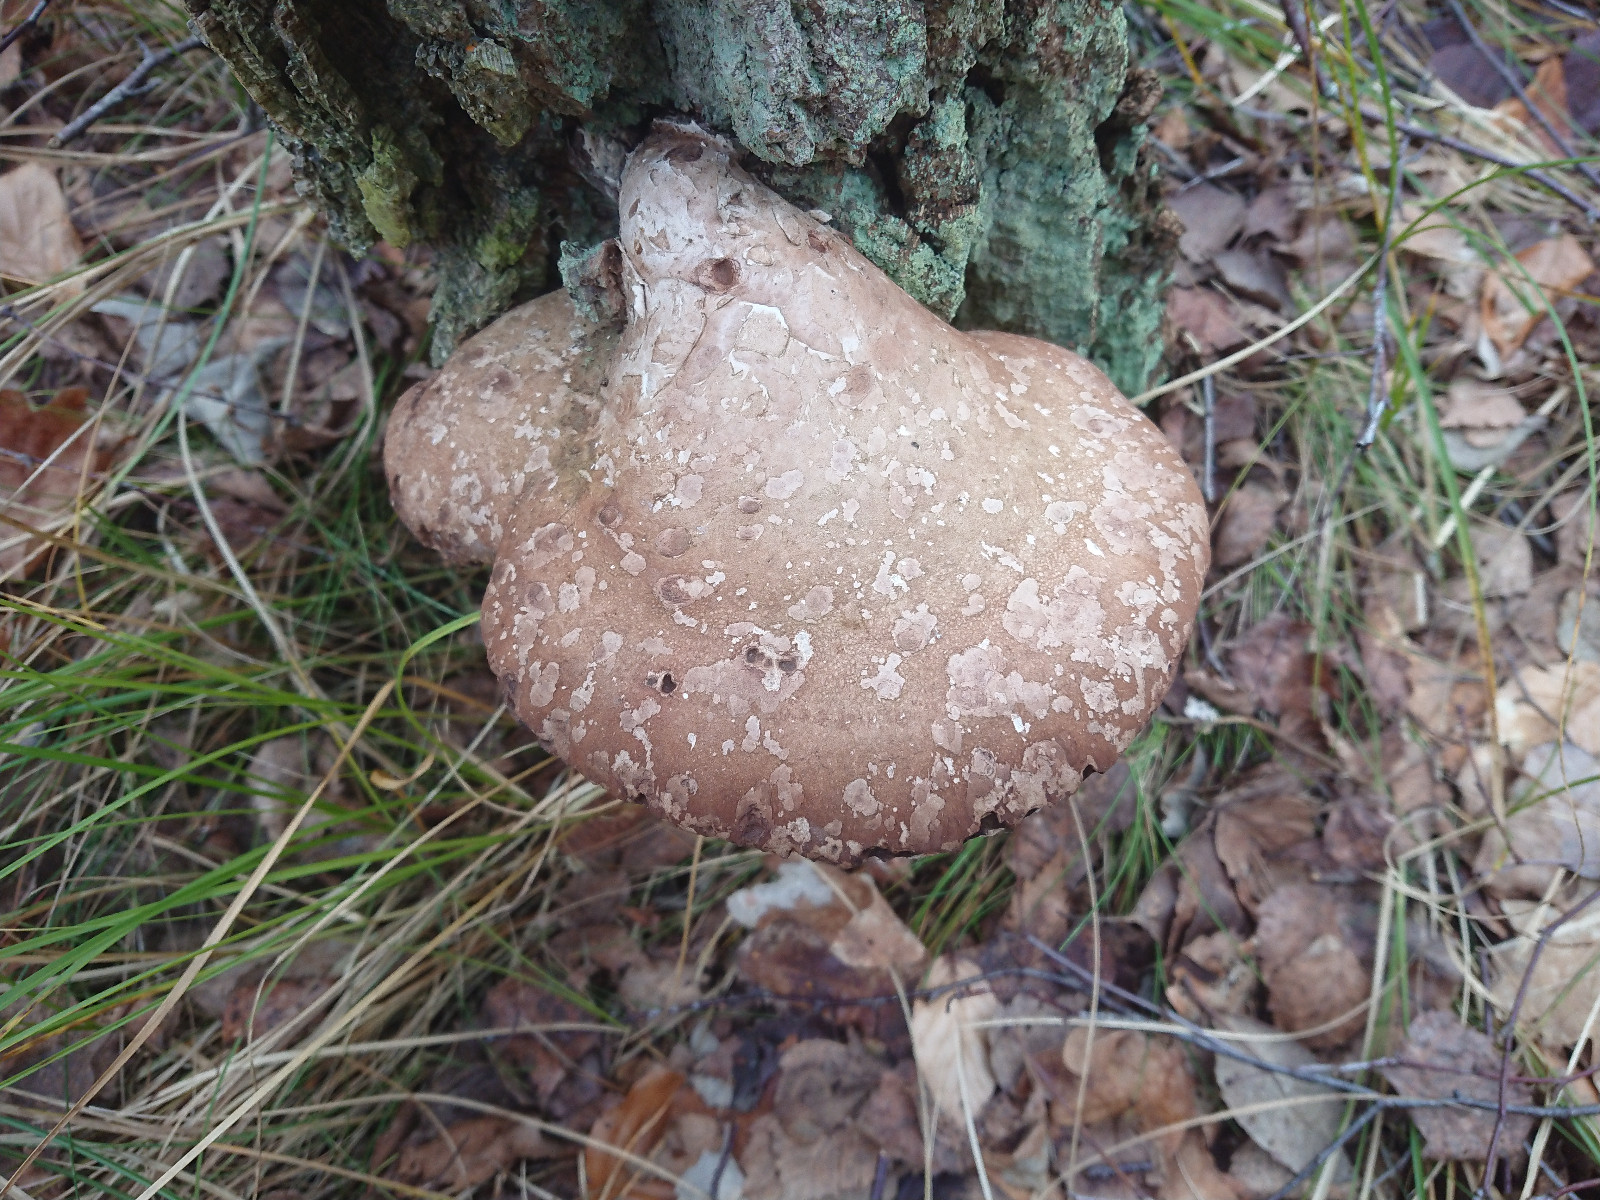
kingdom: Fungi
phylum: Basidiomycota
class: Agaricomycetes
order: Polyporales
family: Fomitopsidaceae
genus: Fomitopsis
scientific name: Fomitopsis betulina
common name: birkeporesvamp
